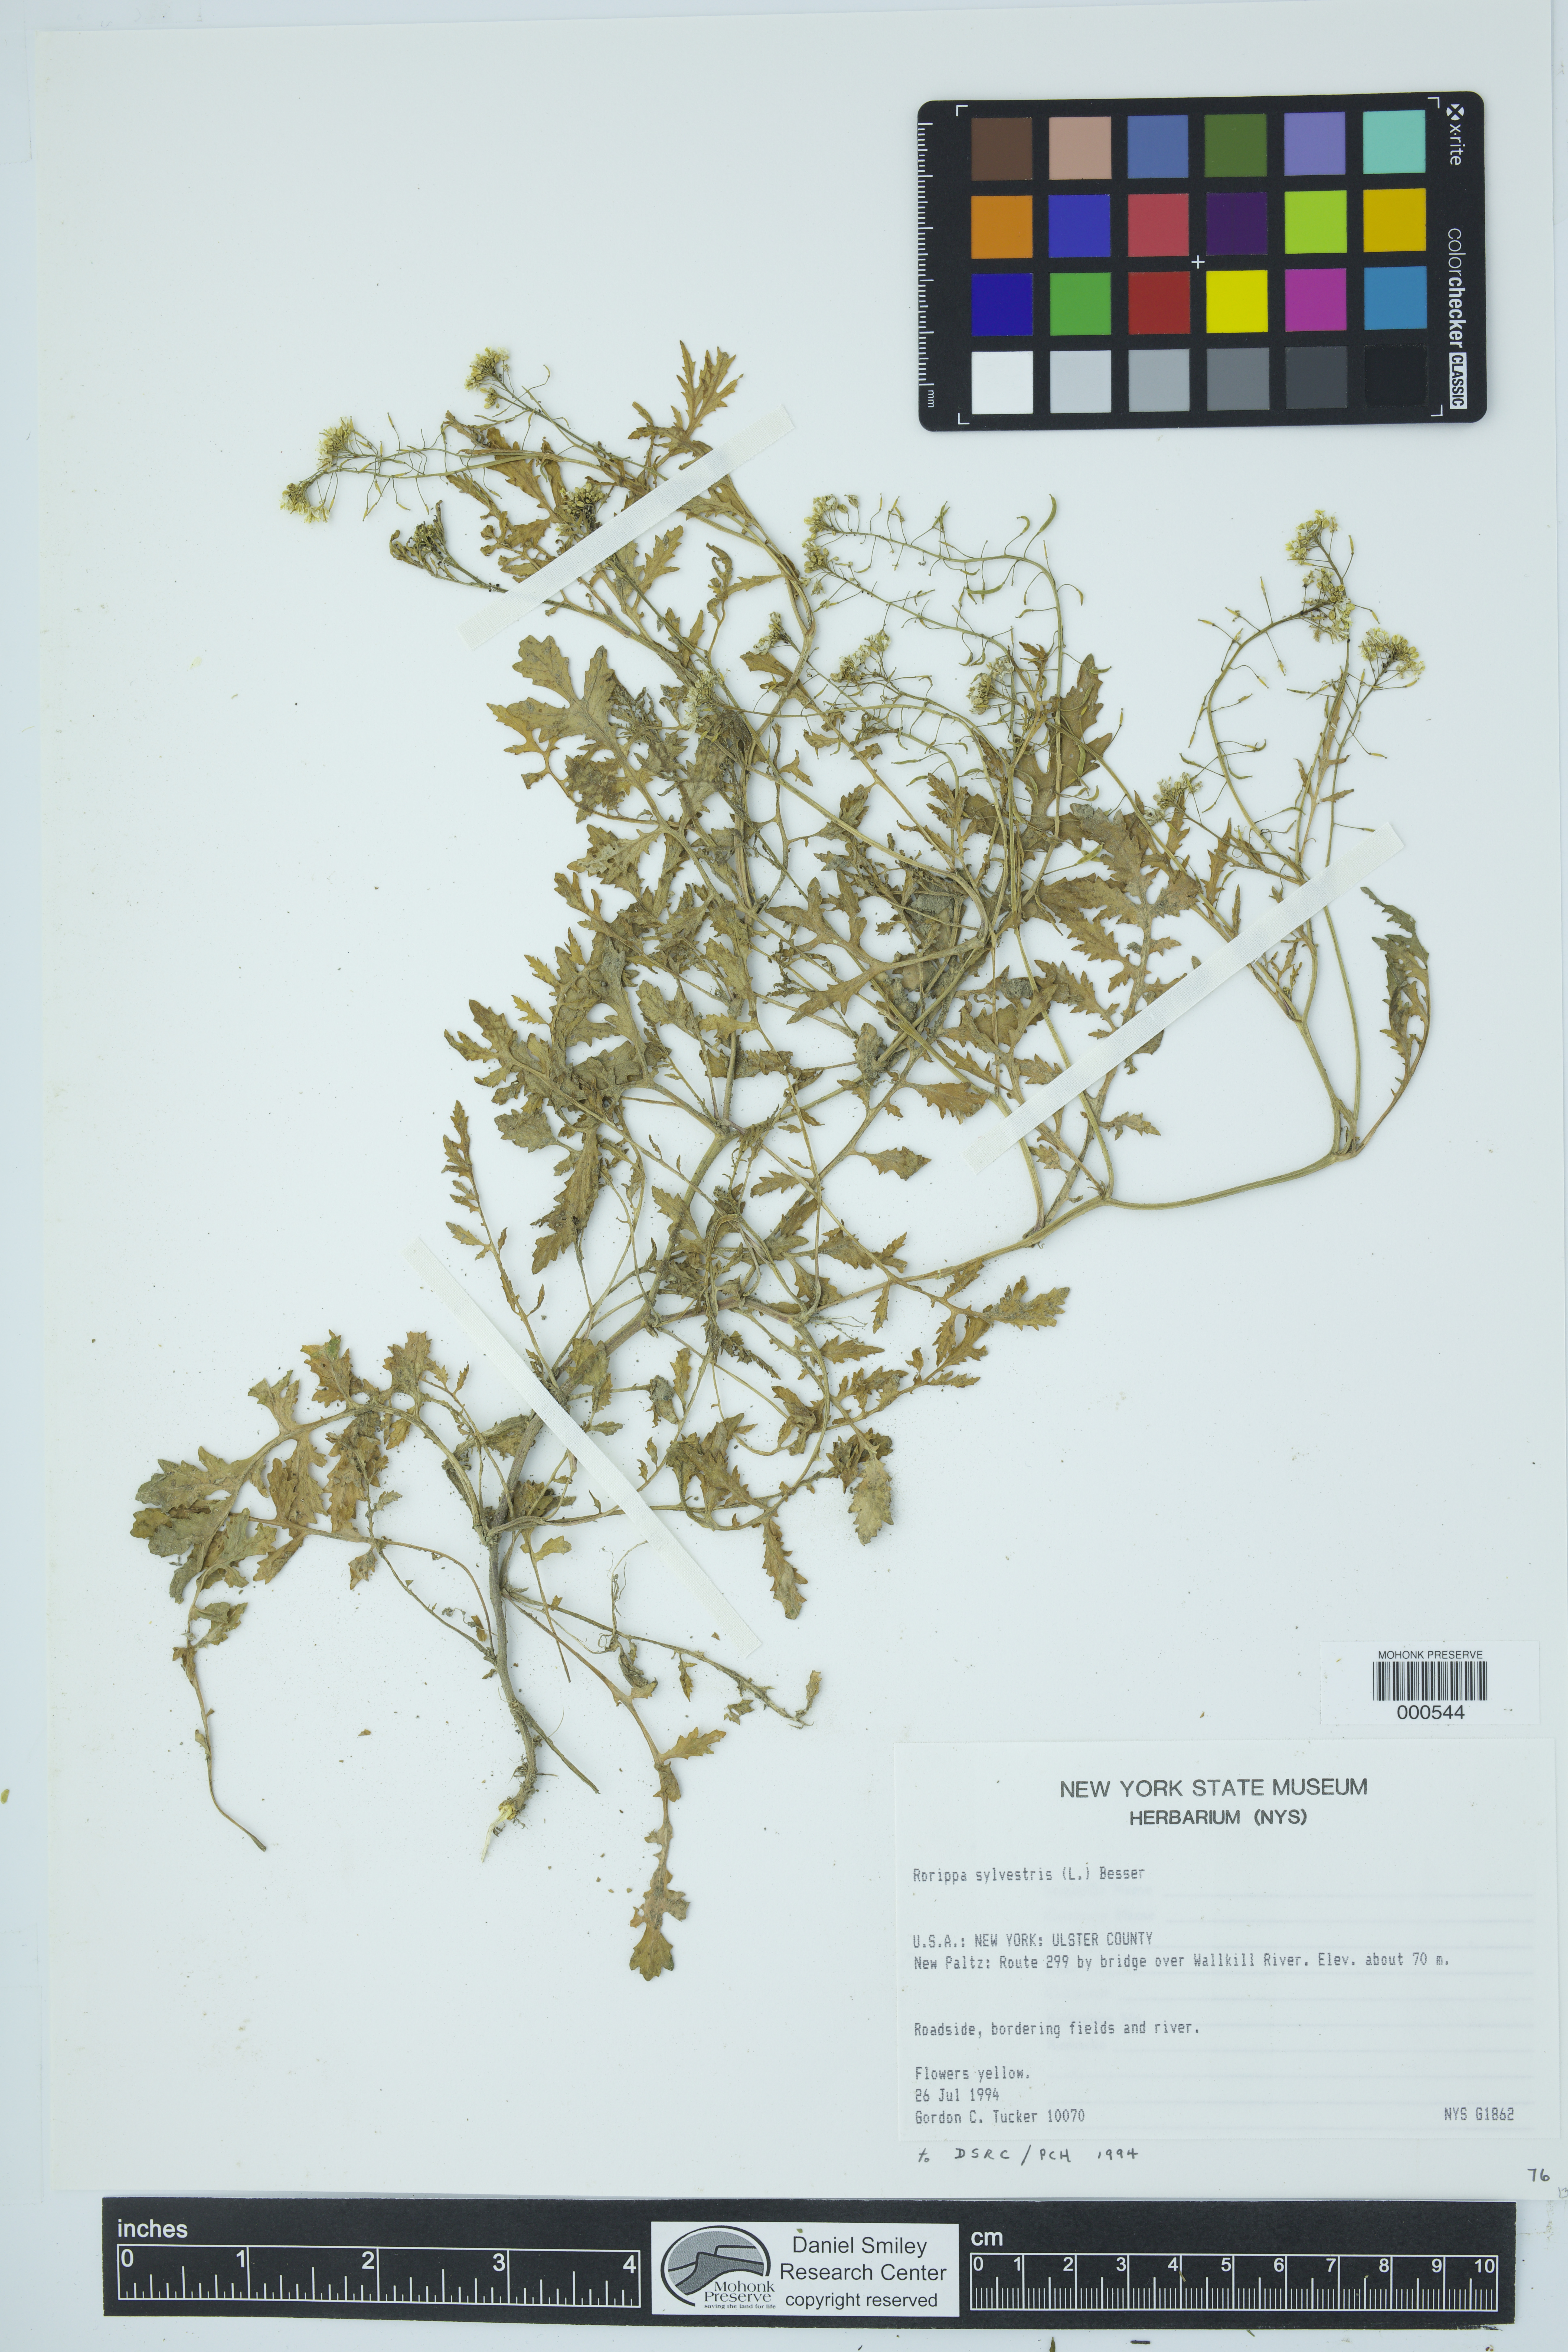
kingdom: Plantae
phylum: Tracheophyta
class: Magnoliopsida
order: Brassicales
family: Brassicaceae
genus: Rorippa
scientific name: Rorippa sylvestris
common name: Creeping yellowcress
